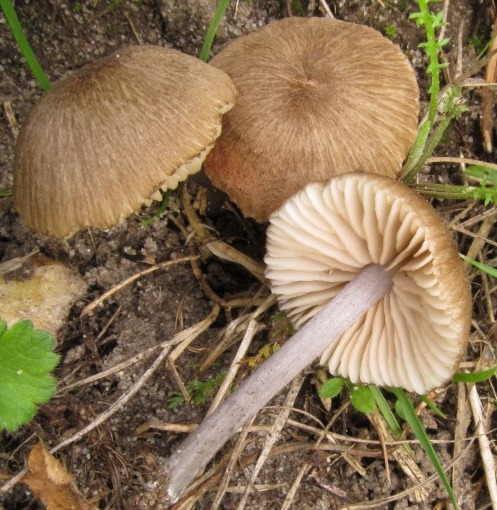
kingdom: Fungi
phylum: Basidiomycota
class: Agaricomycetes
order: Agaricales
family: Entolomataceae
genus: Entoloma
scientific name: Entoloma isborscanum
